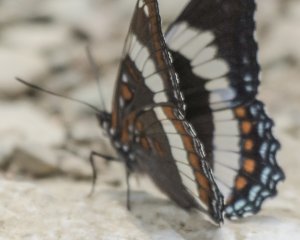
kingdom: Animalia
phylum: Arthropoda
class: Insecta
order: Lepidoptera
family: Nymphalidae
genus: Limenitis
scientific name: Limenitis arthemis
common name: Red-spotted Admiral
